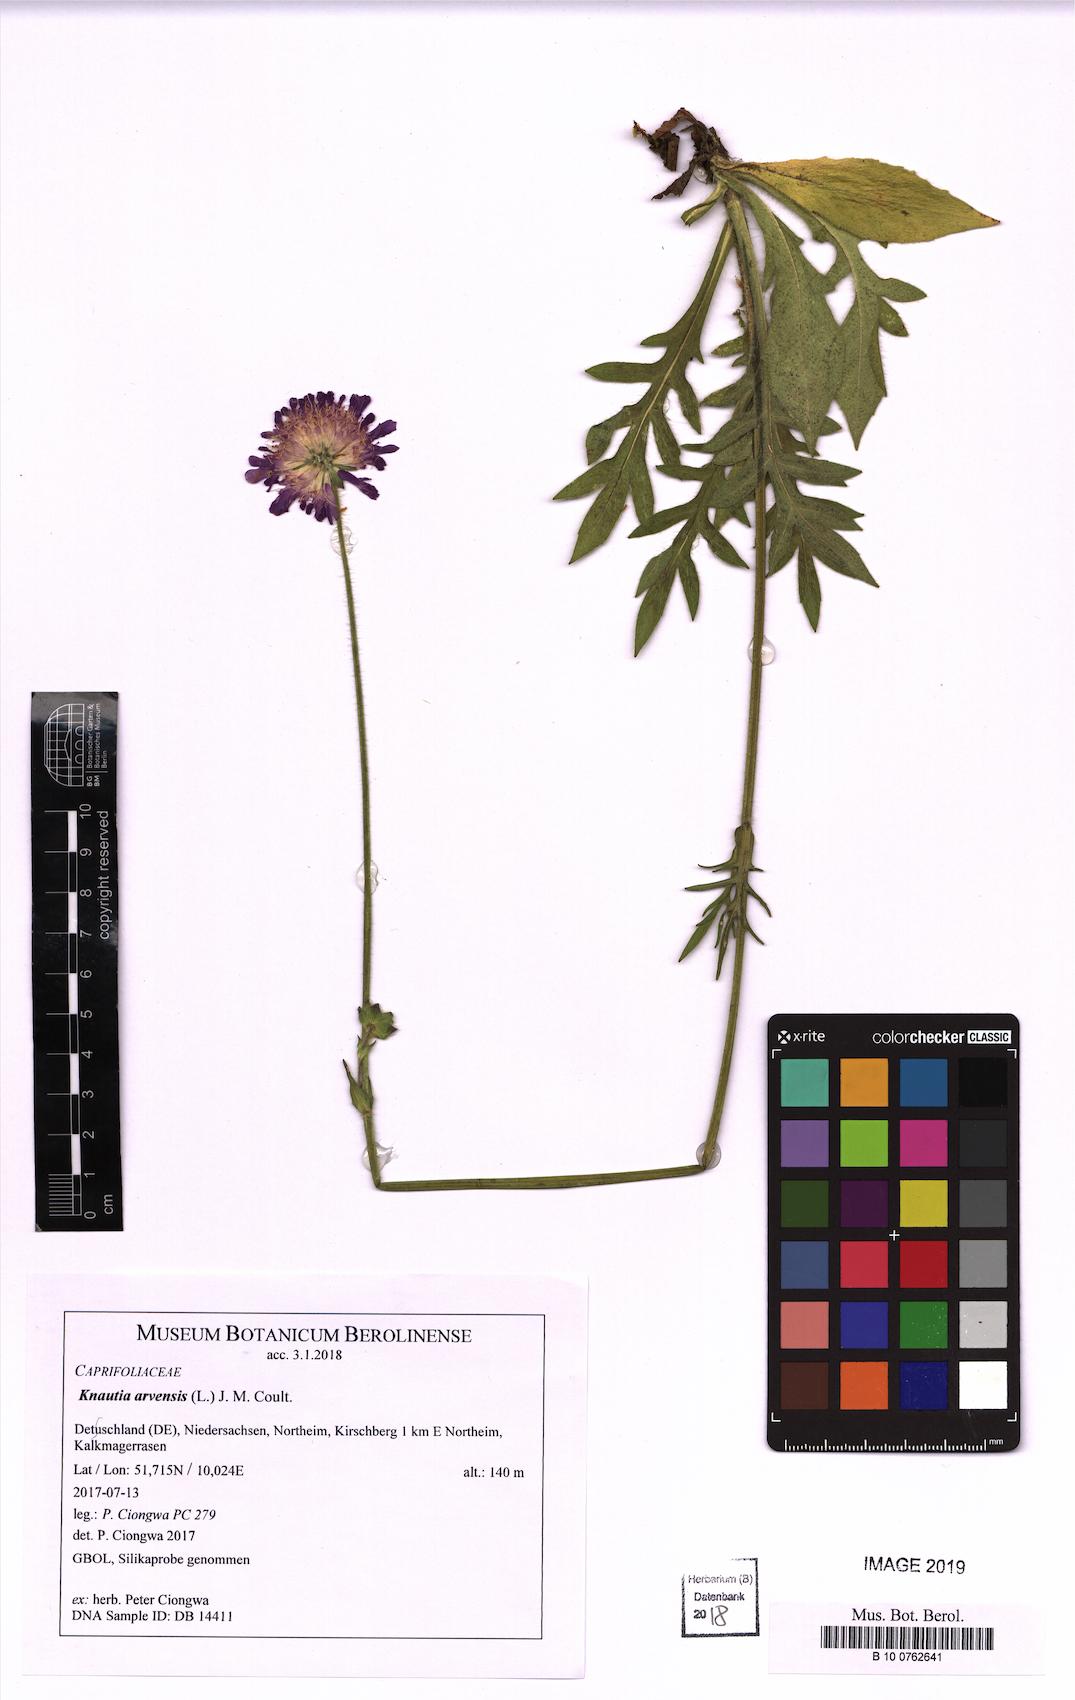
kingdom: Plantae
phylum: Tracheophyta
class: Magnoliopsida
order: Dipsacales
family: Caprifoliaceae
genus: Knautia
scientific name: Knautia arvensis
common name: Field scabiosa
